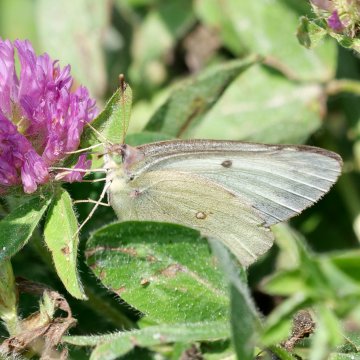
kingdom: Animalia
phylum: Arthropoda
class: Insecta
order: Lepidoptera
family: Pieridae
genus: Colias
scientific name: Colias philodice
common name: Clouded Sulphur
